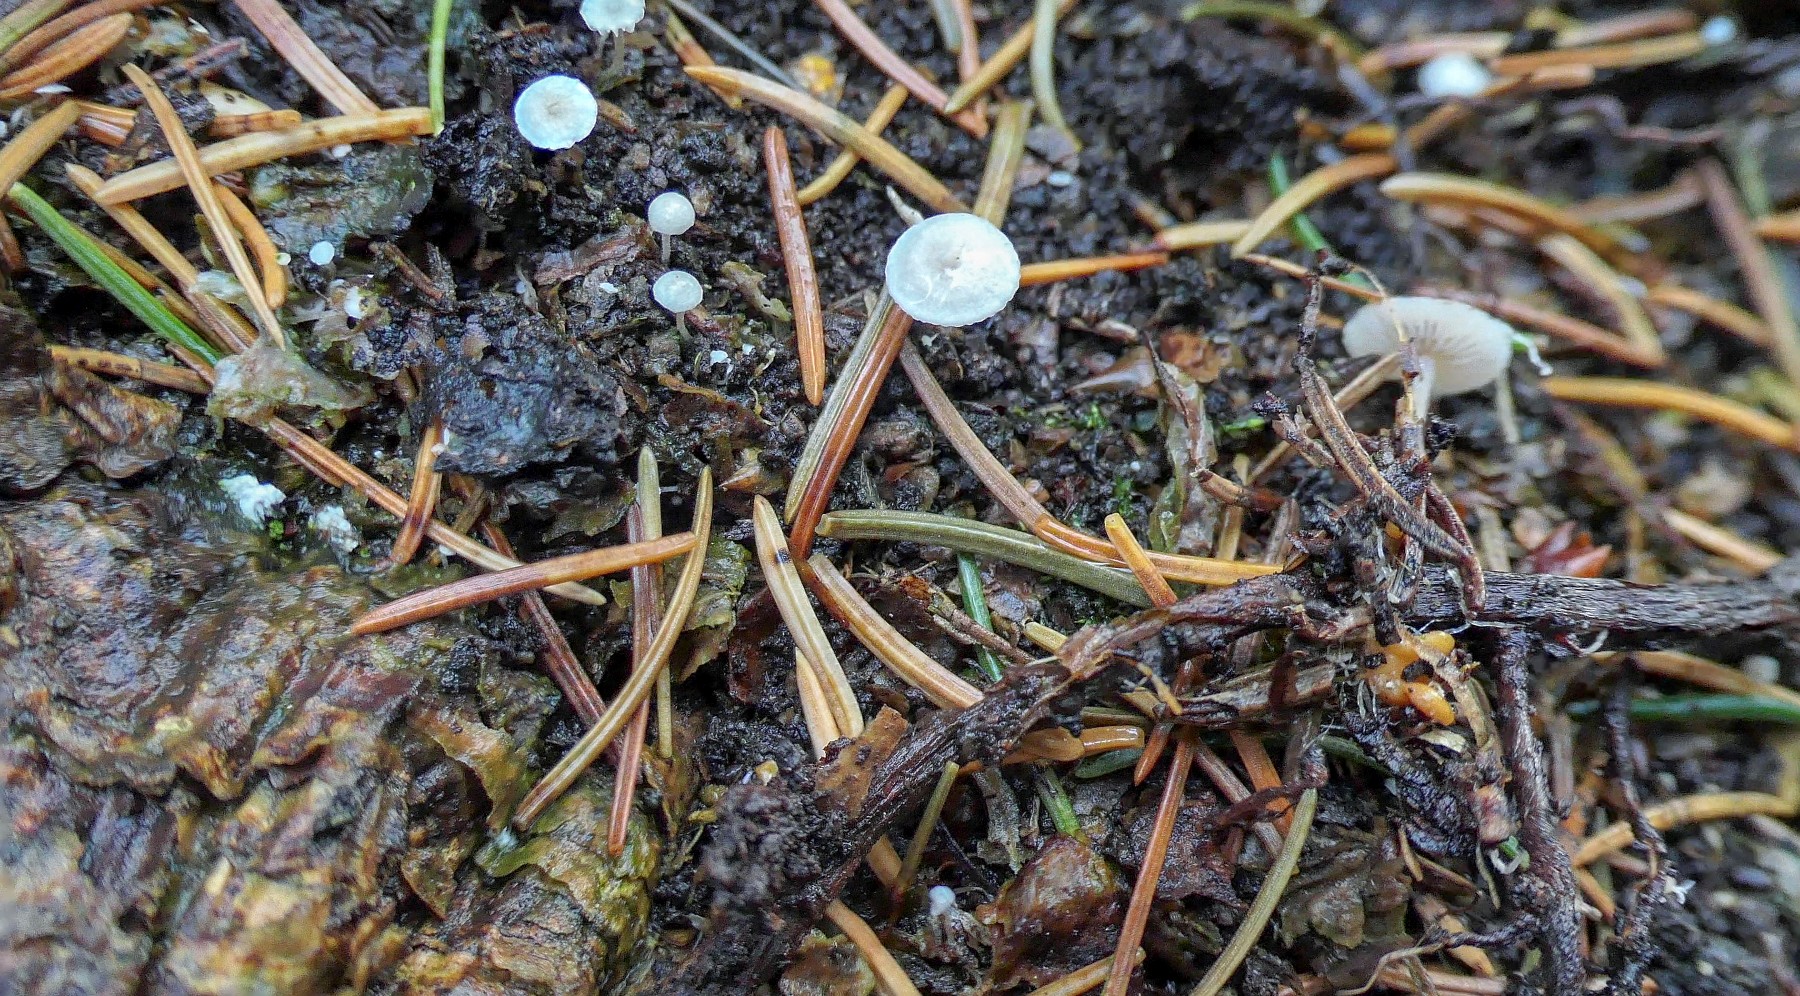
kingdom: Fungi
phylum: Basidiomycota
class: Agaricomycetes
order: Agaricales
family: Tricholomataceae
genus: Collybia
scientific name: Collybia cookei
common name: gulknoldet lighat
